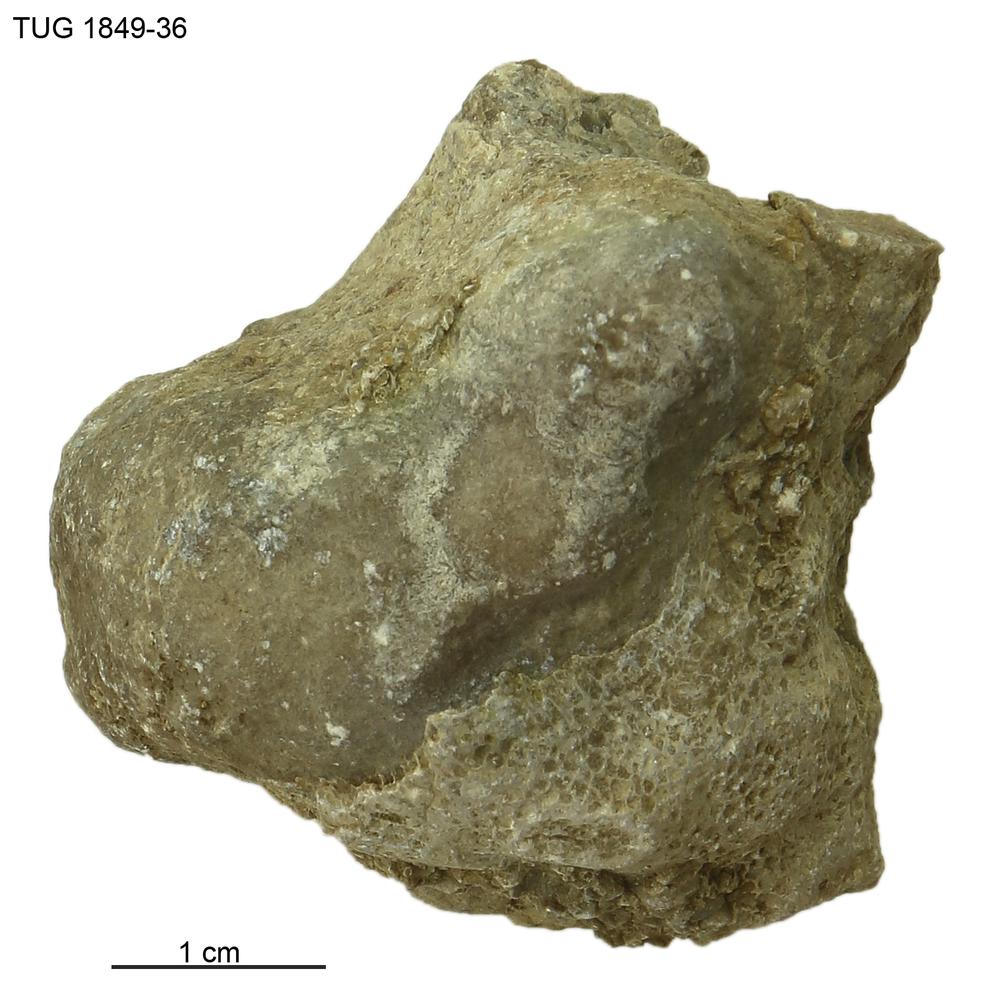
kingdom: Animalia
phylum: Porifera
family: Stromatoporidae
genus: Stromatopora
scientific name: Stromatopora
